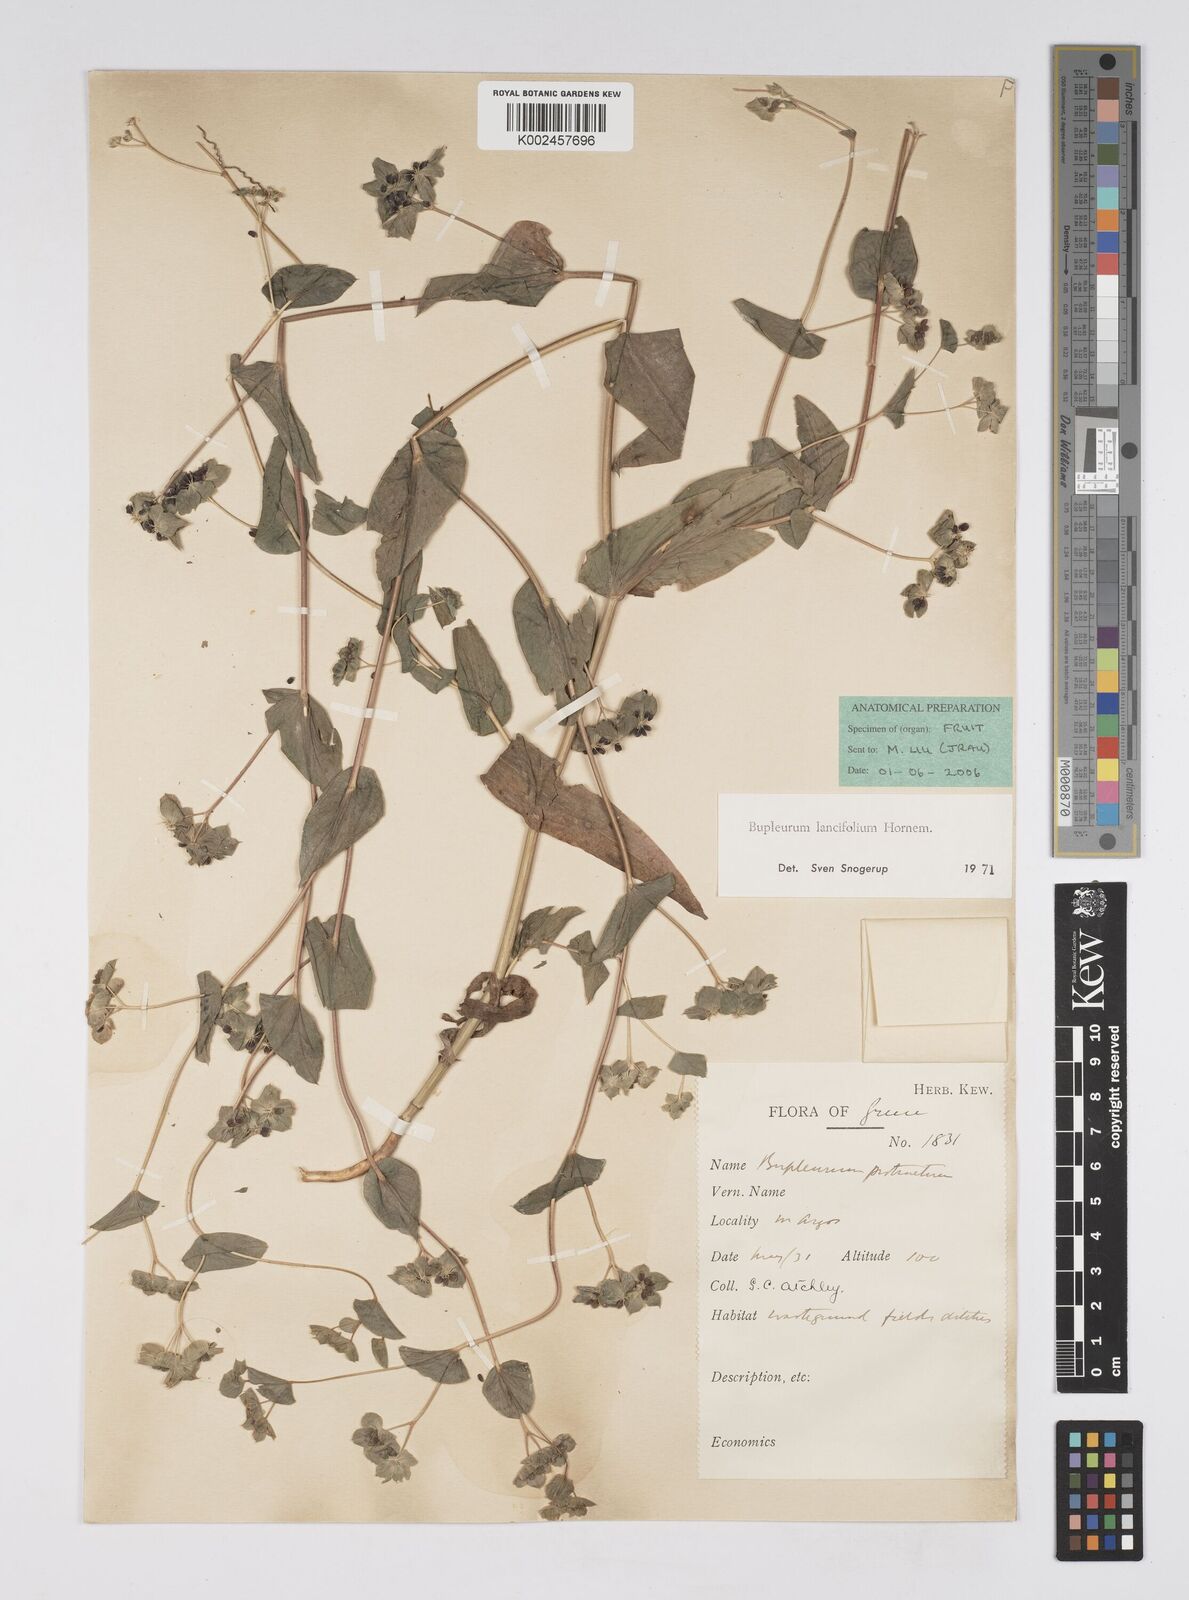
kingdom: Plantae
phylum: Tracheophyta
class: Magnoliopsida
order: Apiales
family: Apiaceae
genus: Bupleurum
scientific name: Bupleurum lancifolium
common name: False thorow-wax
